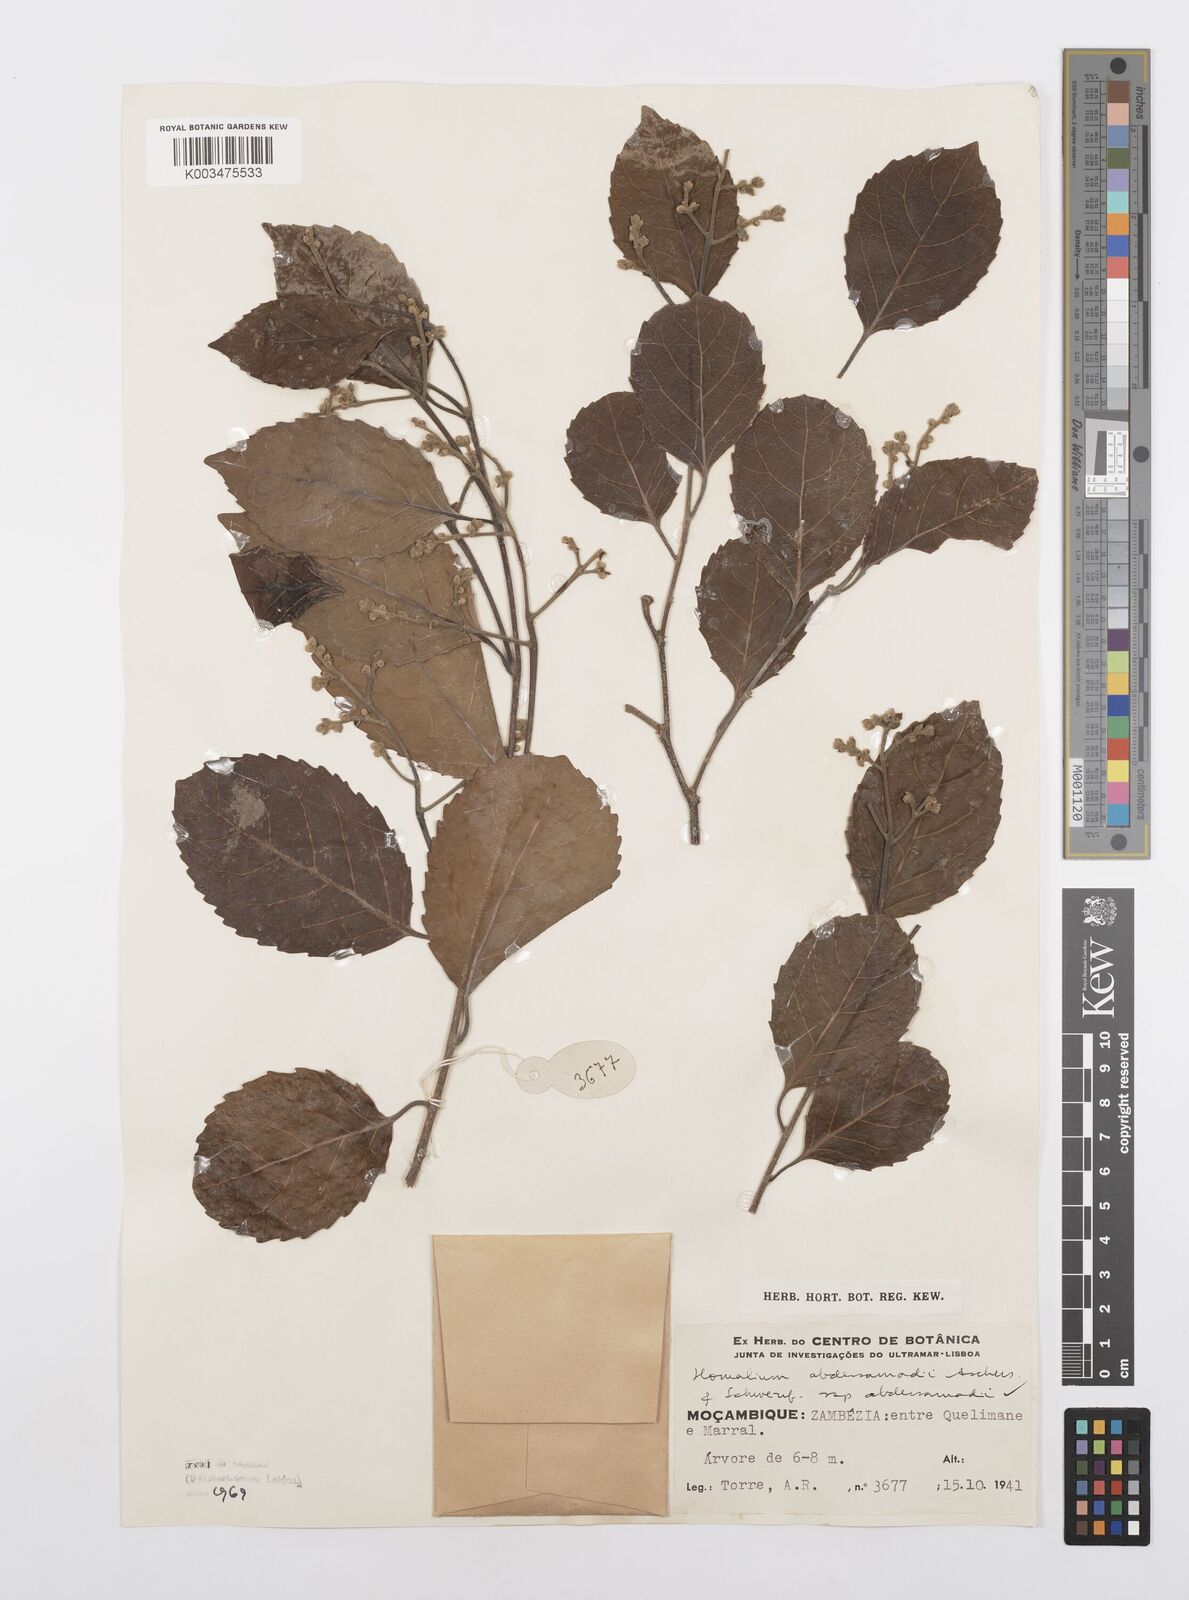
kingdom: Plantae
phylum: Tracheophyta
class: Magnoliopsida
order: Malpighiales
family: Salicaceae
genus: Homalium
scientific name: Homalium abdessammadii
